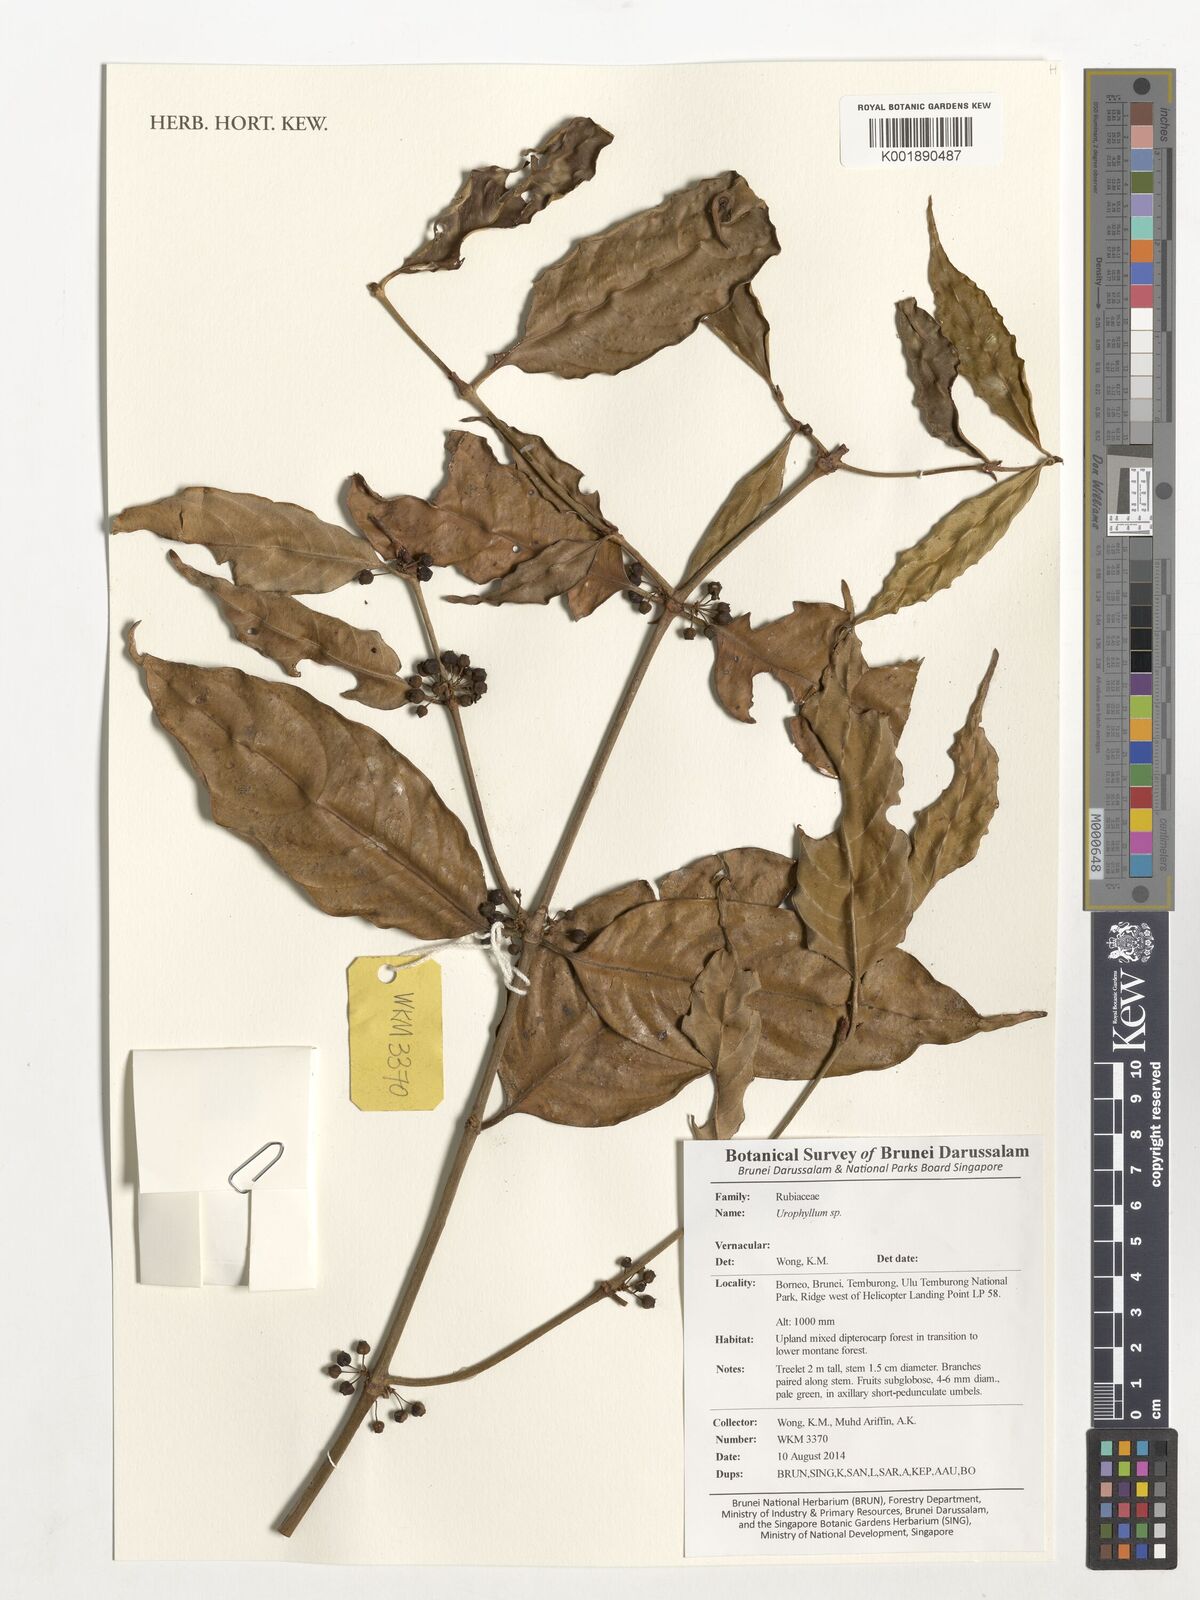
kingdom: Plantae
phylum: Tracheophyta
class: Magnoliopsida
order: Gentianales
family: Rubiaceae
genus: Urophyllum
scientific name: Urophyllum
